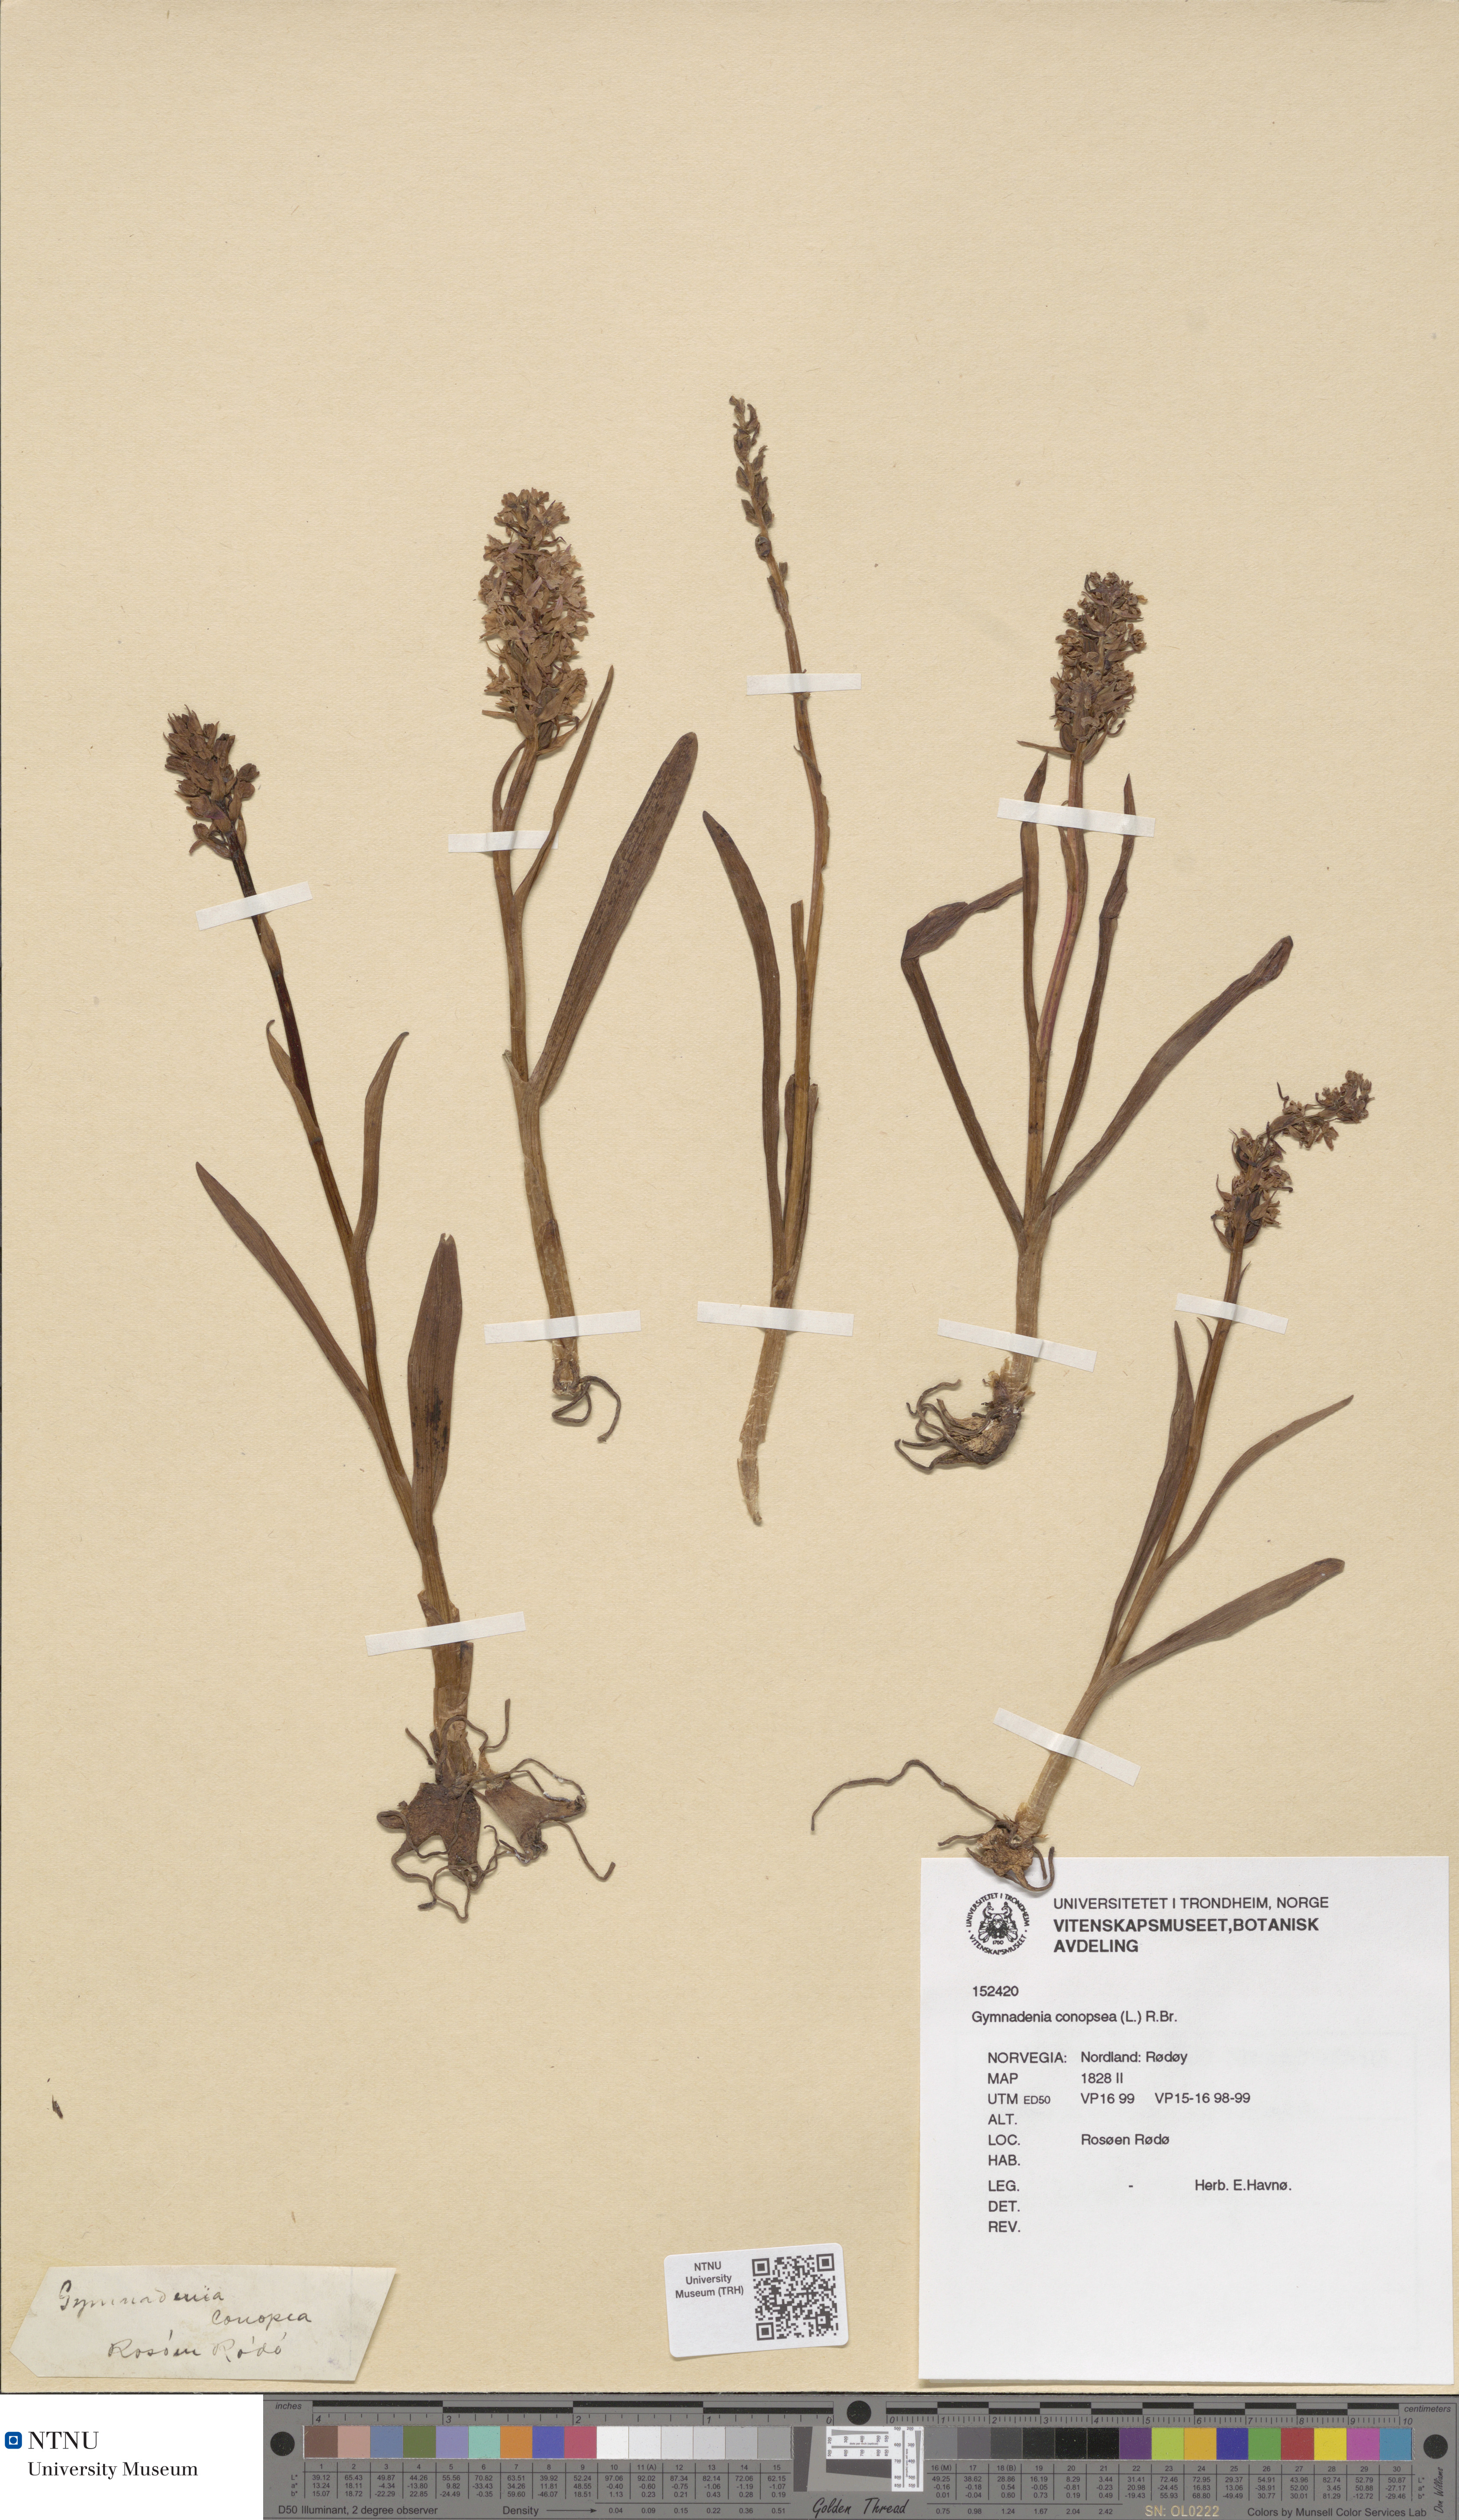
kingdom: Plantae
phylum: Tracheophyta
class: Liliopsida
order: Asparagales
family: Orchidaceae
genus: Gymnadenia
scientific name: Gymnadenia conopsea
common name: Fragrant orchid
